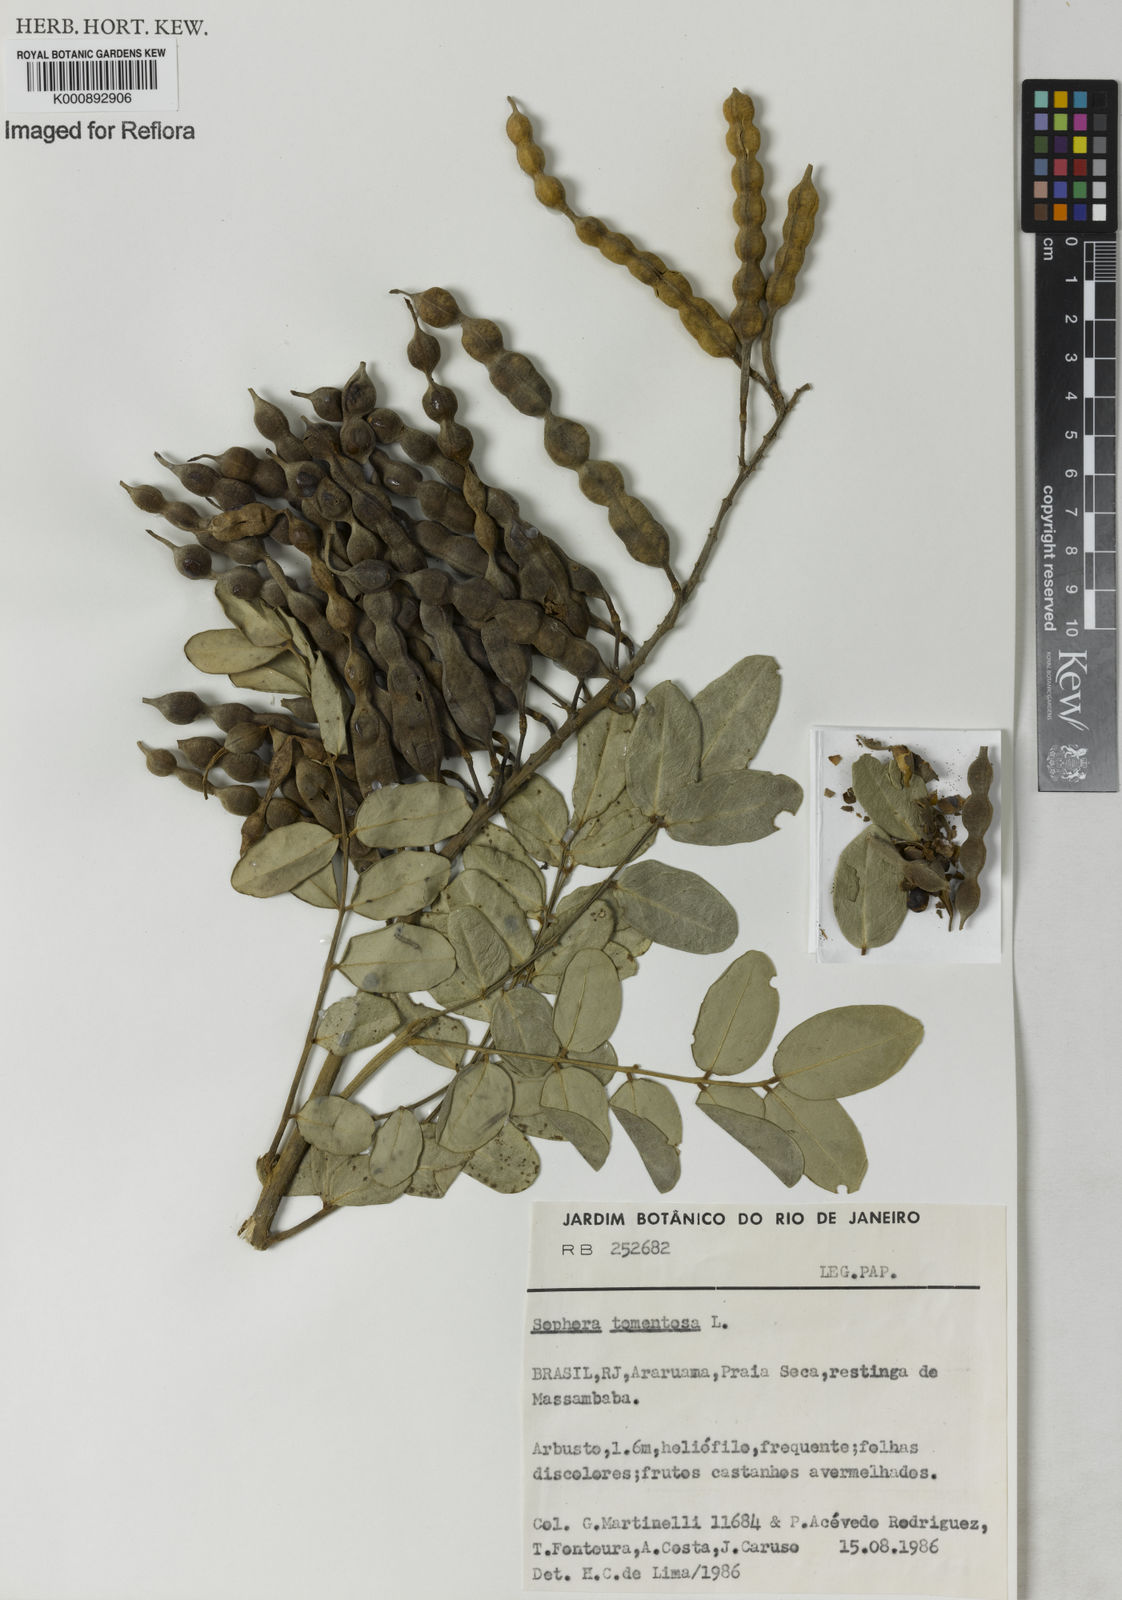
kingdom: Plantae
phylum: Tracheophyta
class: Magnoliopsida
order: Fabales
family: Fabaceae
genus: Sophora
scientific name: Sophora tomentosa
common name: Yellow necklacepod
